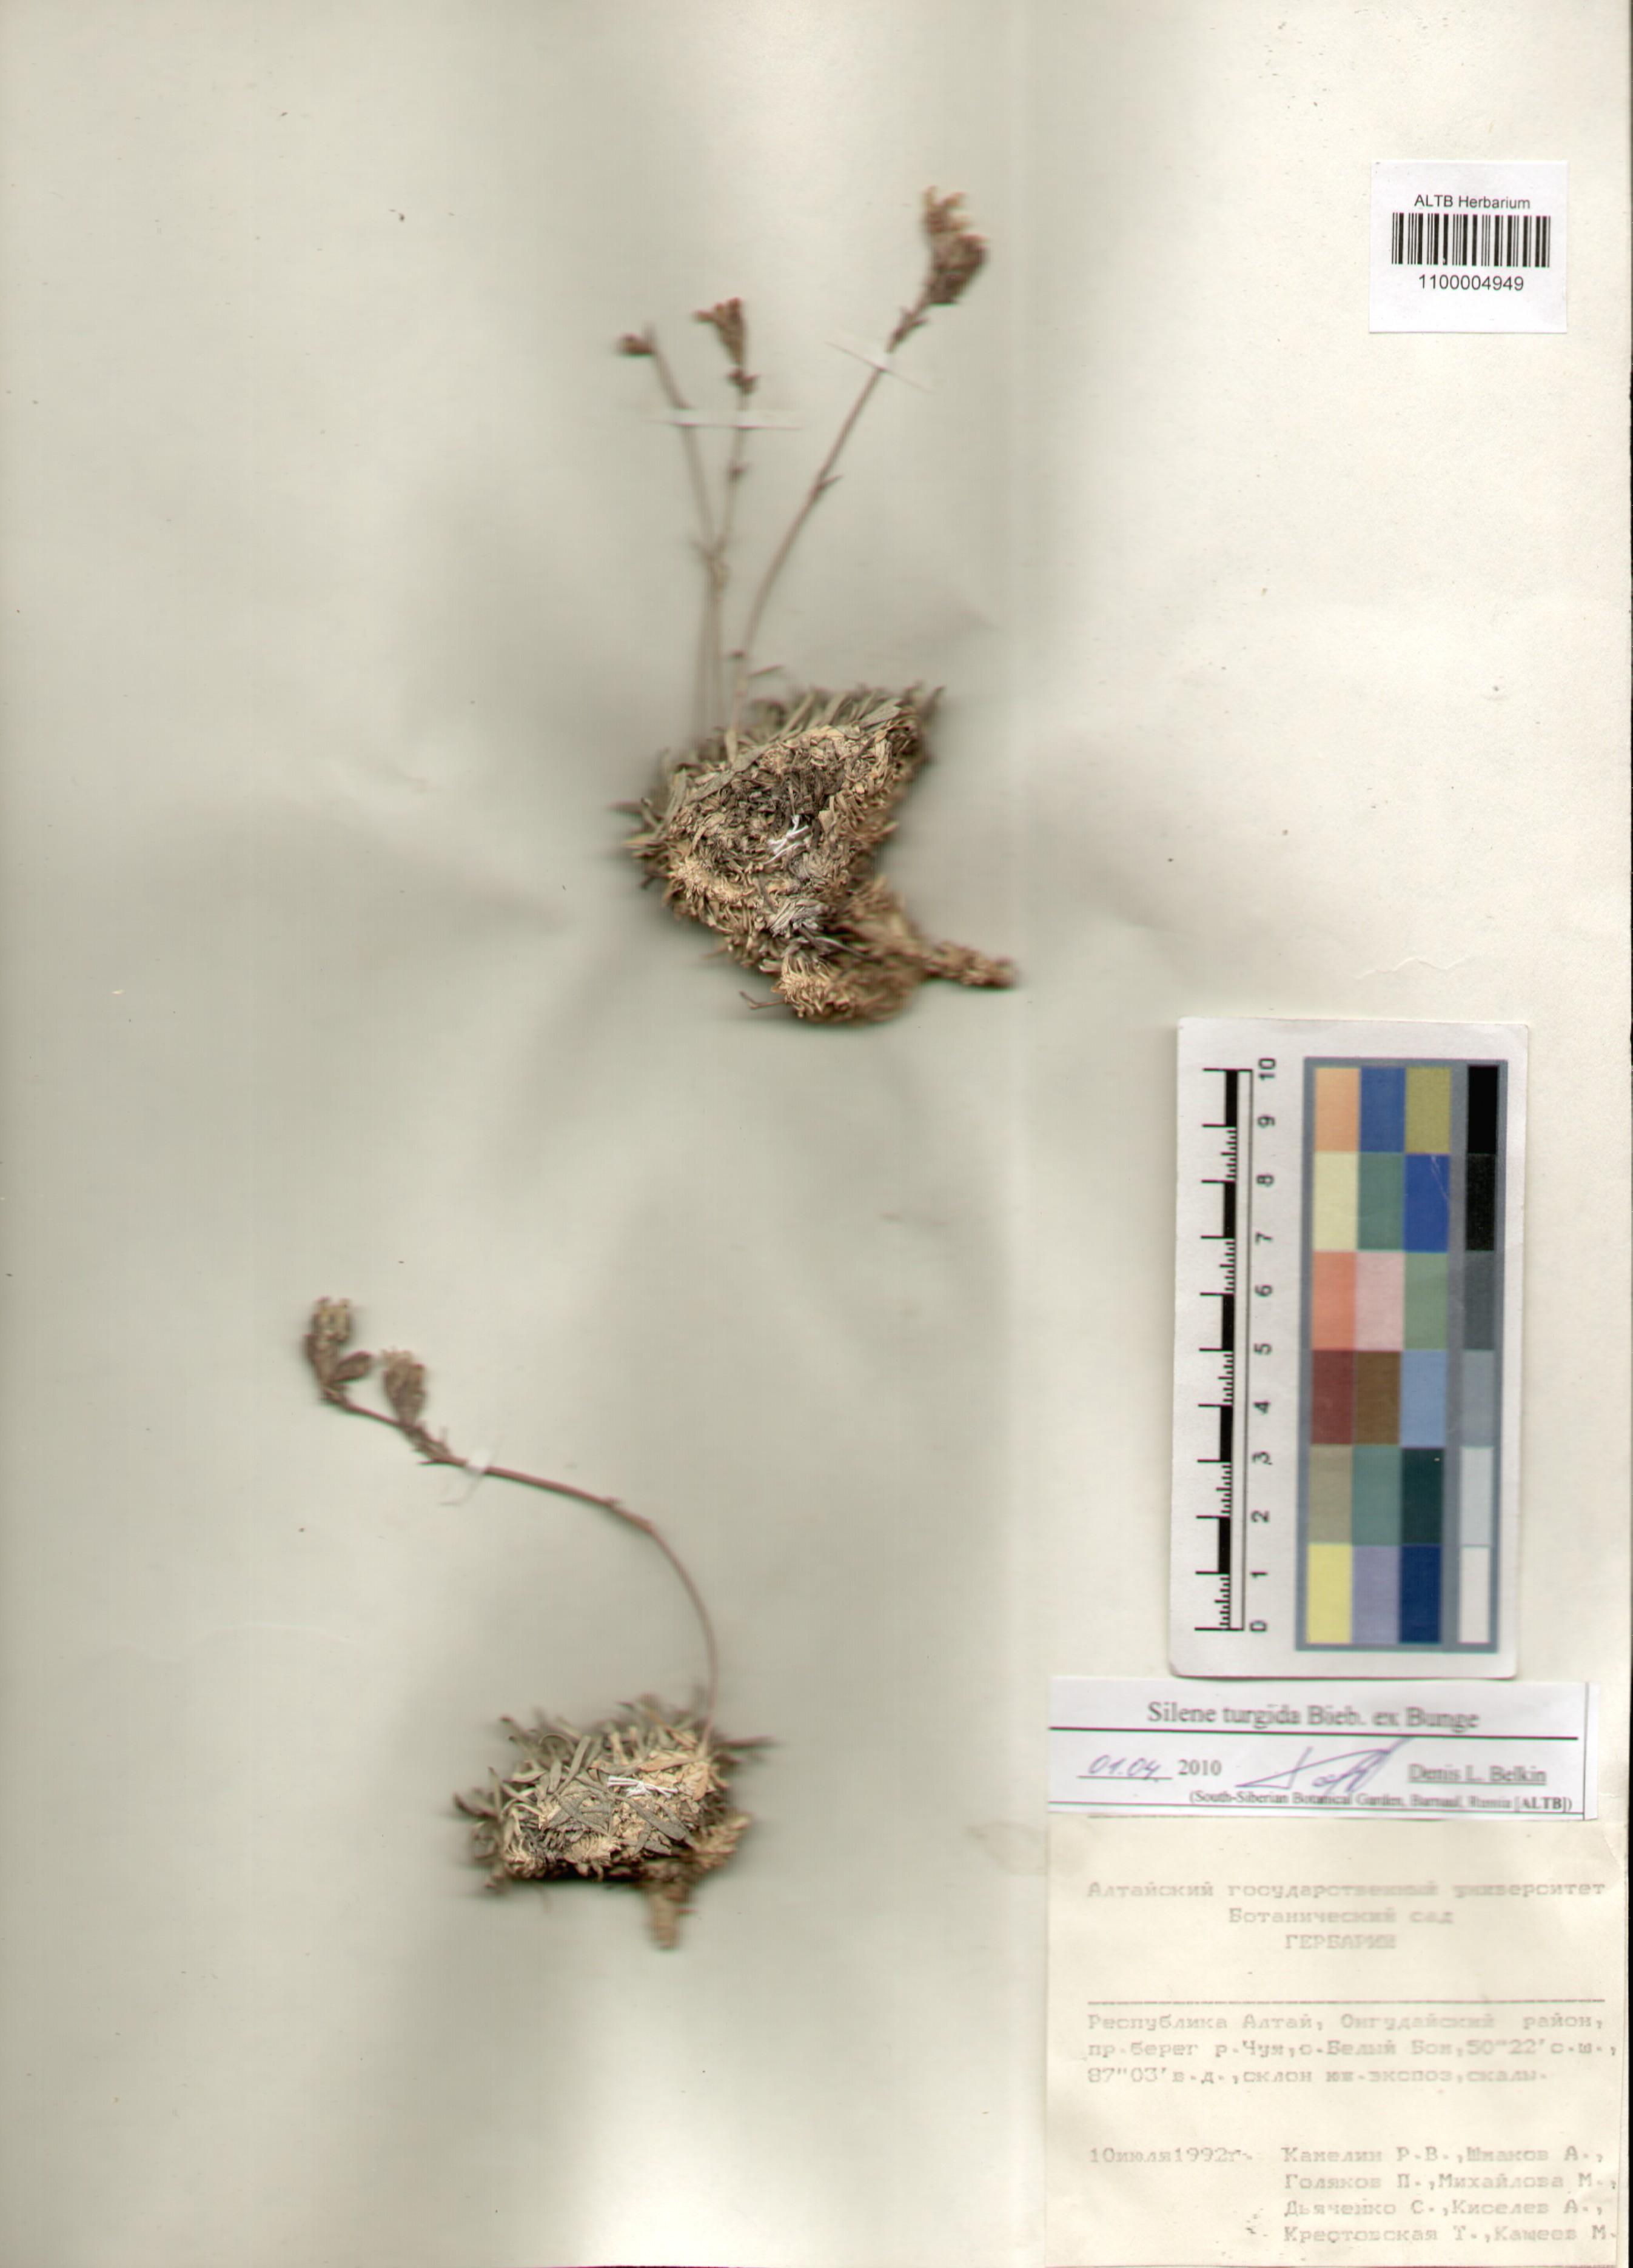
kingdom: Plantae
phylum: Tracheophyta
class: Magnoliopsida
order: Caryophyllales
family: Caryophyllaceae
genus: Silene
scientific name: Silene turgida
